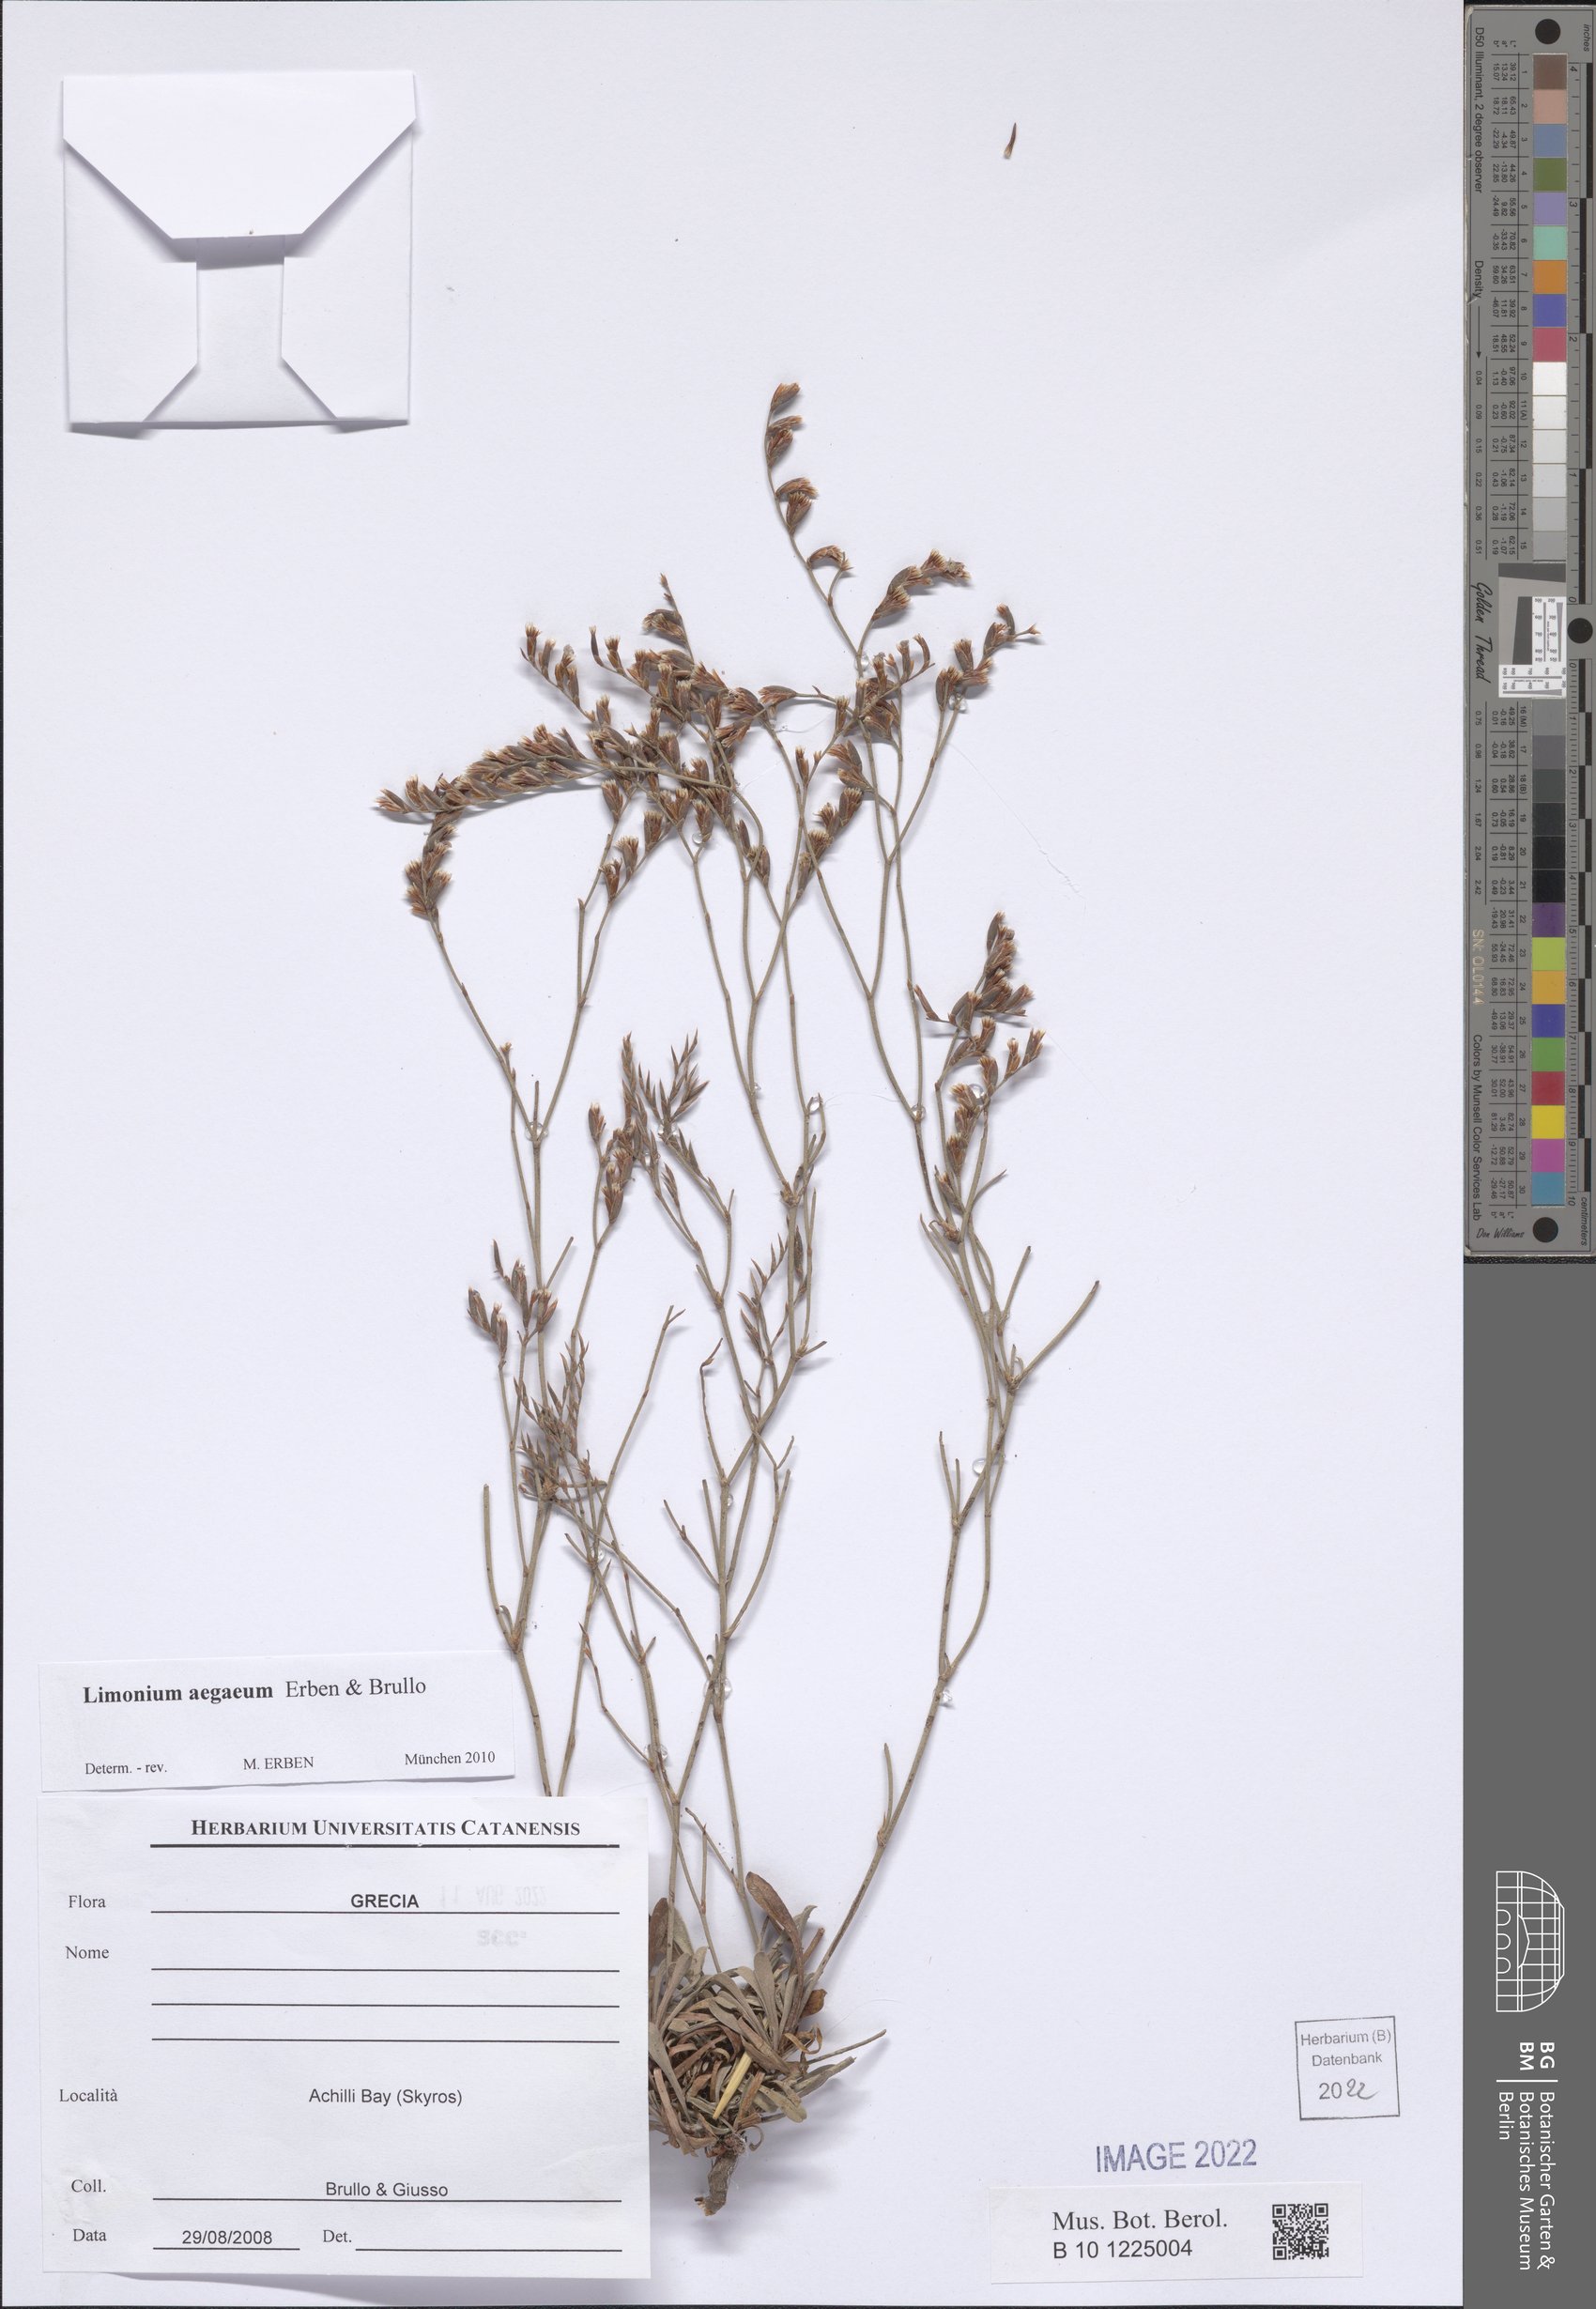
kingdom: Plantae
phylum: Tracheophyta
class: Magnoliopsida
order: Caryophyllales
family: Plumbaginaceae
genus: Limonium
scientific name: Limonium aegaeum
